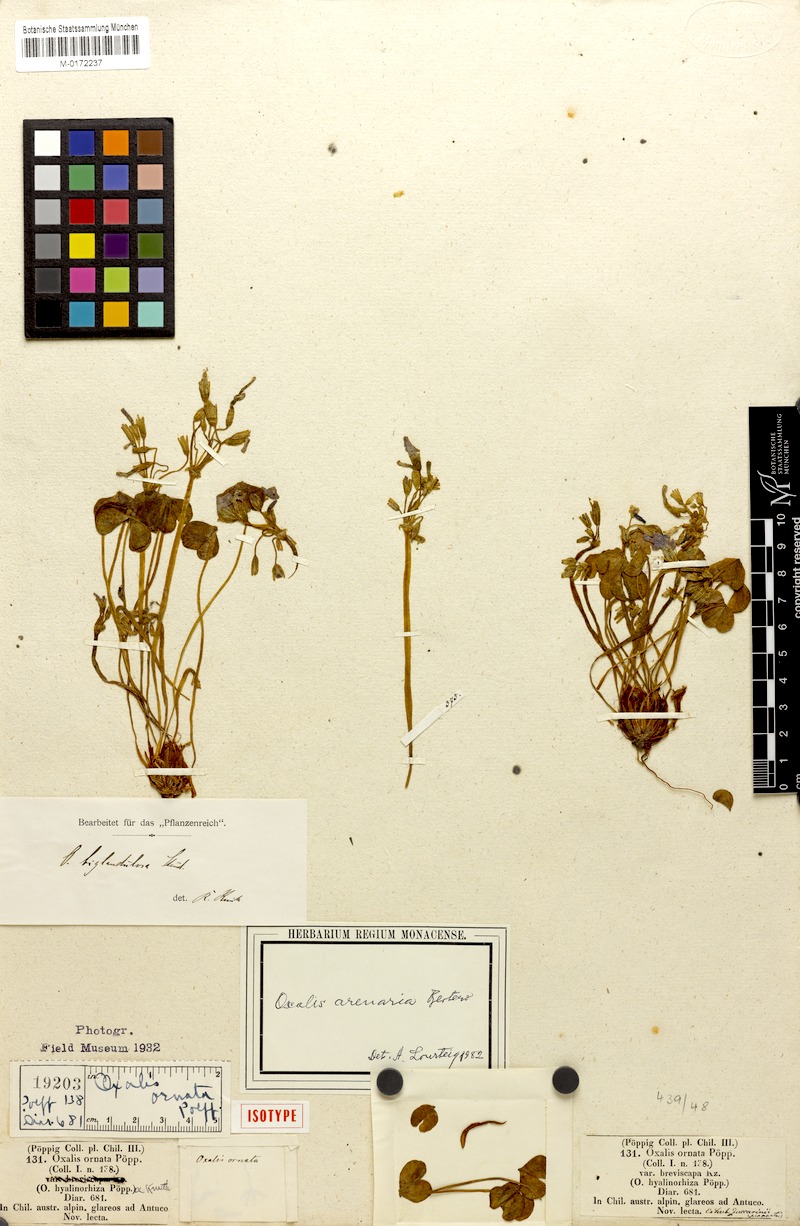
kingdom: Plantae
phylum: Tracheophyta
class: Magnoliopsida
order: Oxalidales
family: Oxalidaceae
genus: Oxalis
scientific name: Oxalis arenaria
